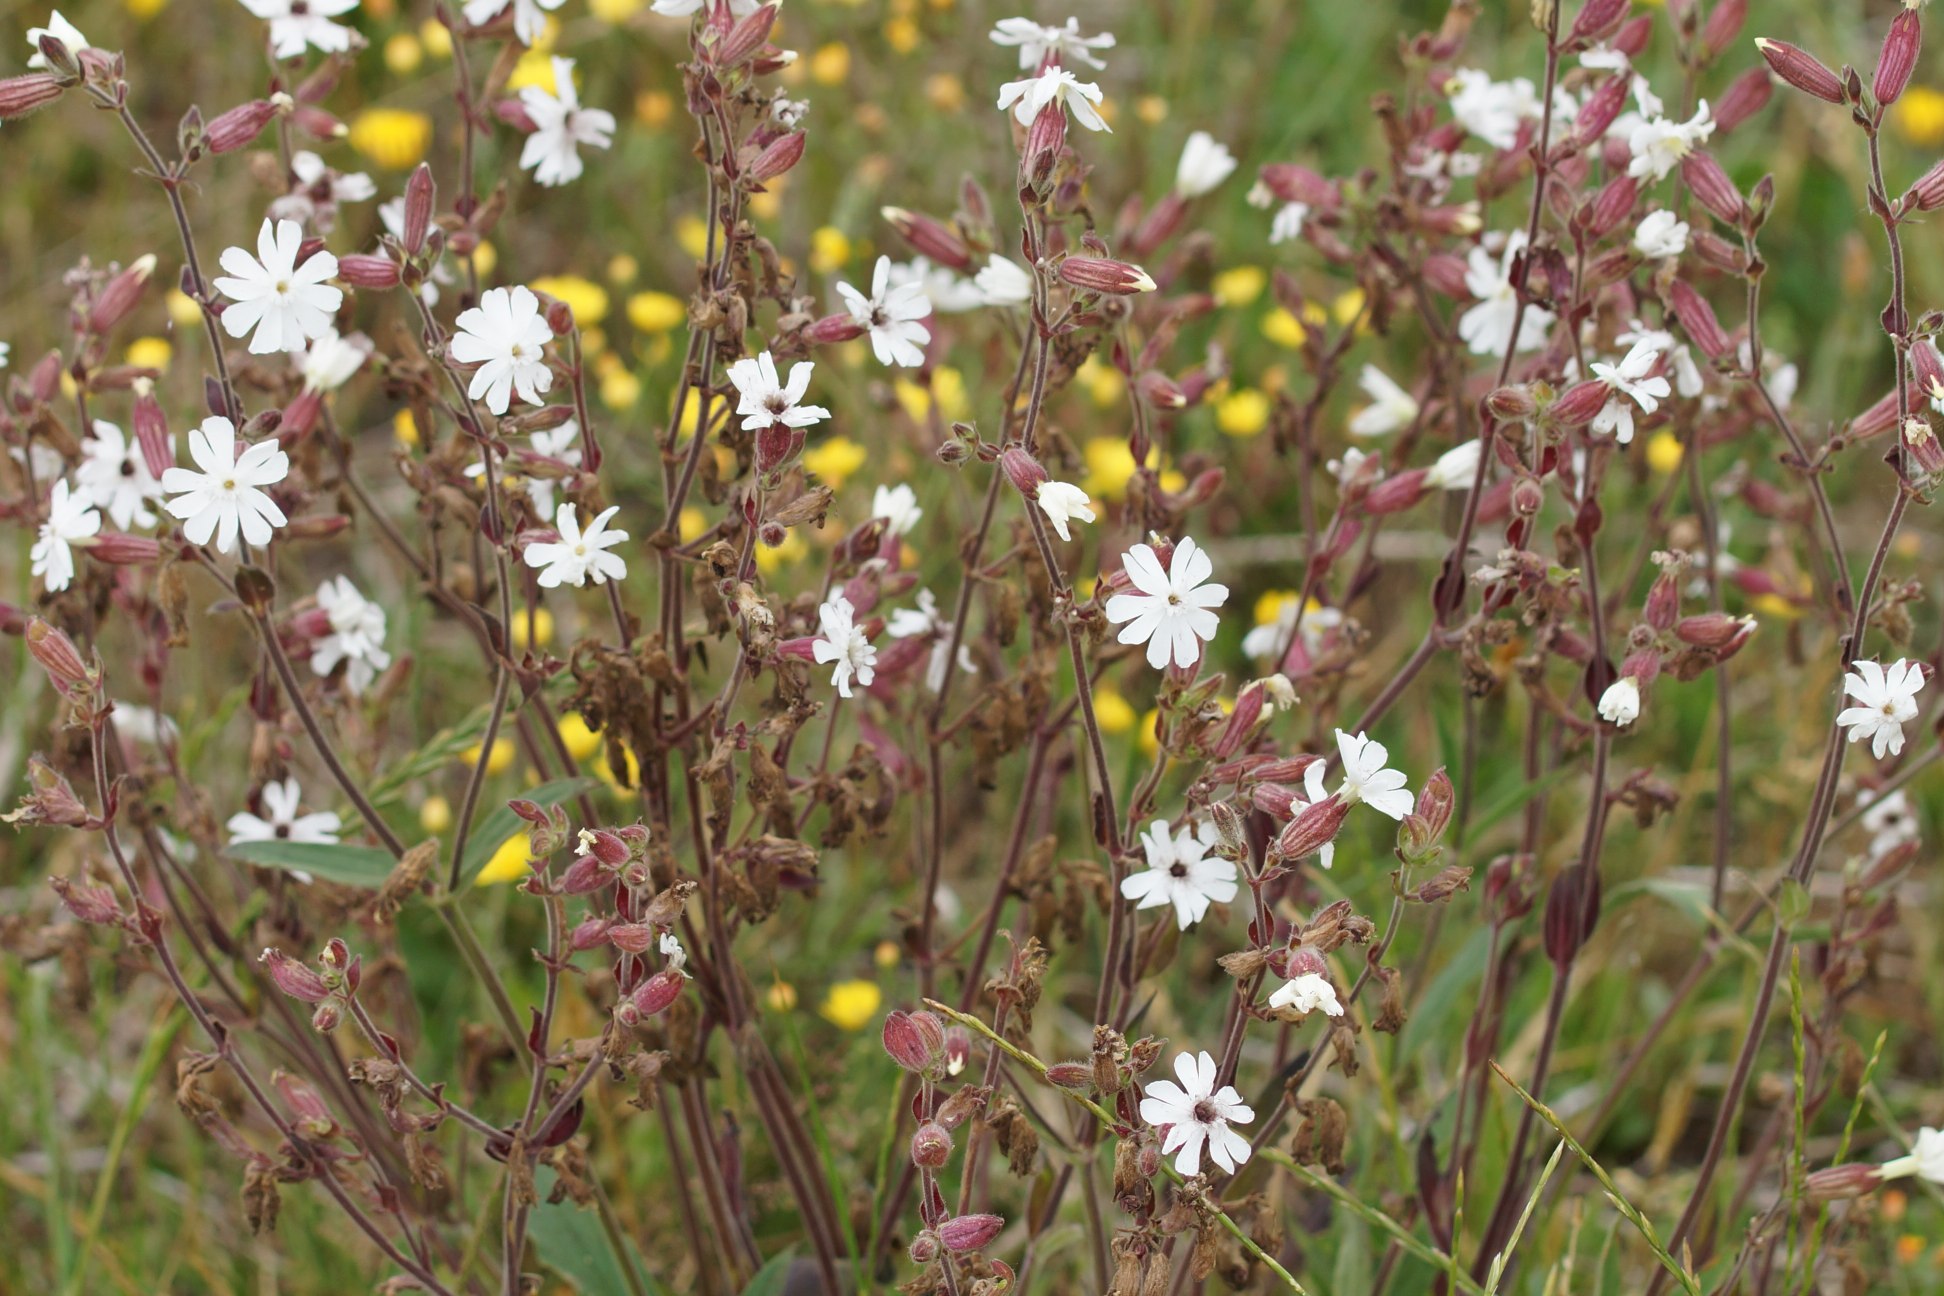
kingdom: Plantae
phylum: Tracheophyta
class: Magnoliopsida
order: Caryophyllales
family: Caryophyllaceae
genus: Silene
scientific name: Silene latifolia
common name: Aftenpragtstjerne
